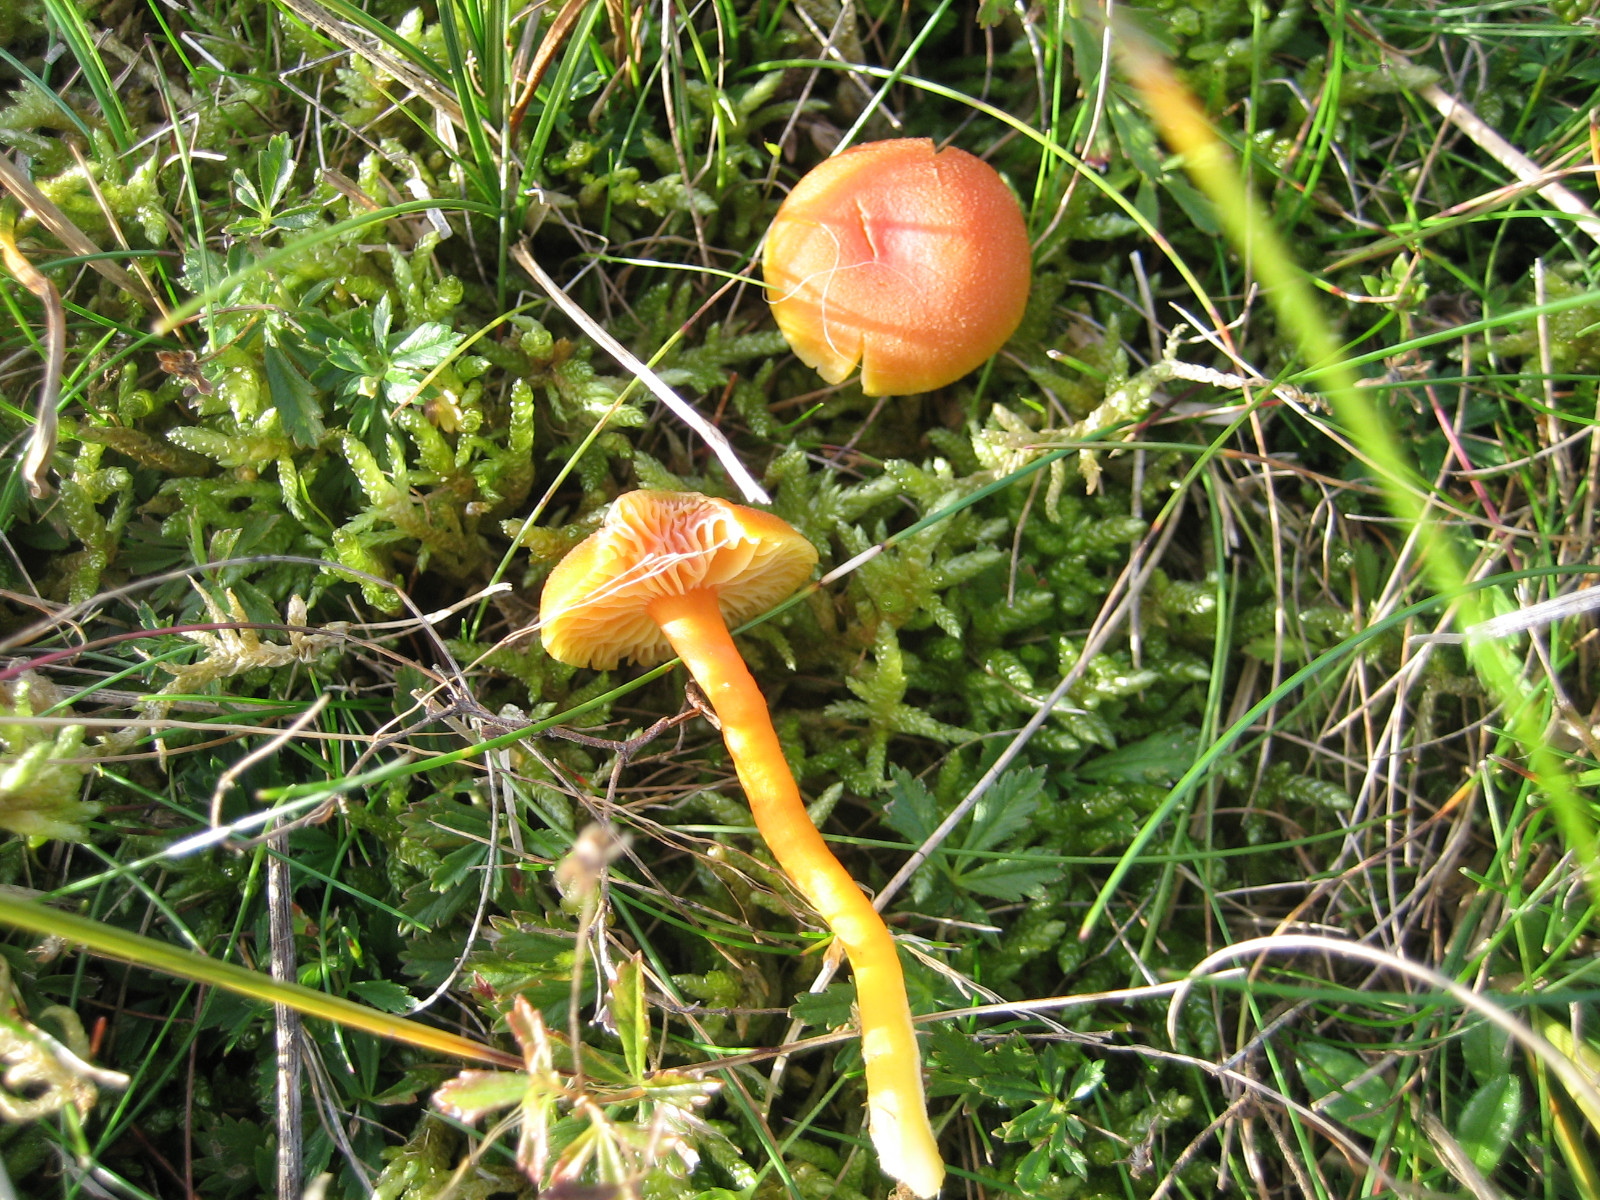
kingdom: Fungi
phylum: Basidiomycota
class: Agaricomycetes
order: Agaricales
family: Hygrophoraceae
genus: Hygrocybe
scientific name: Hygrocybe miniata
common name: mønje-vokshat
